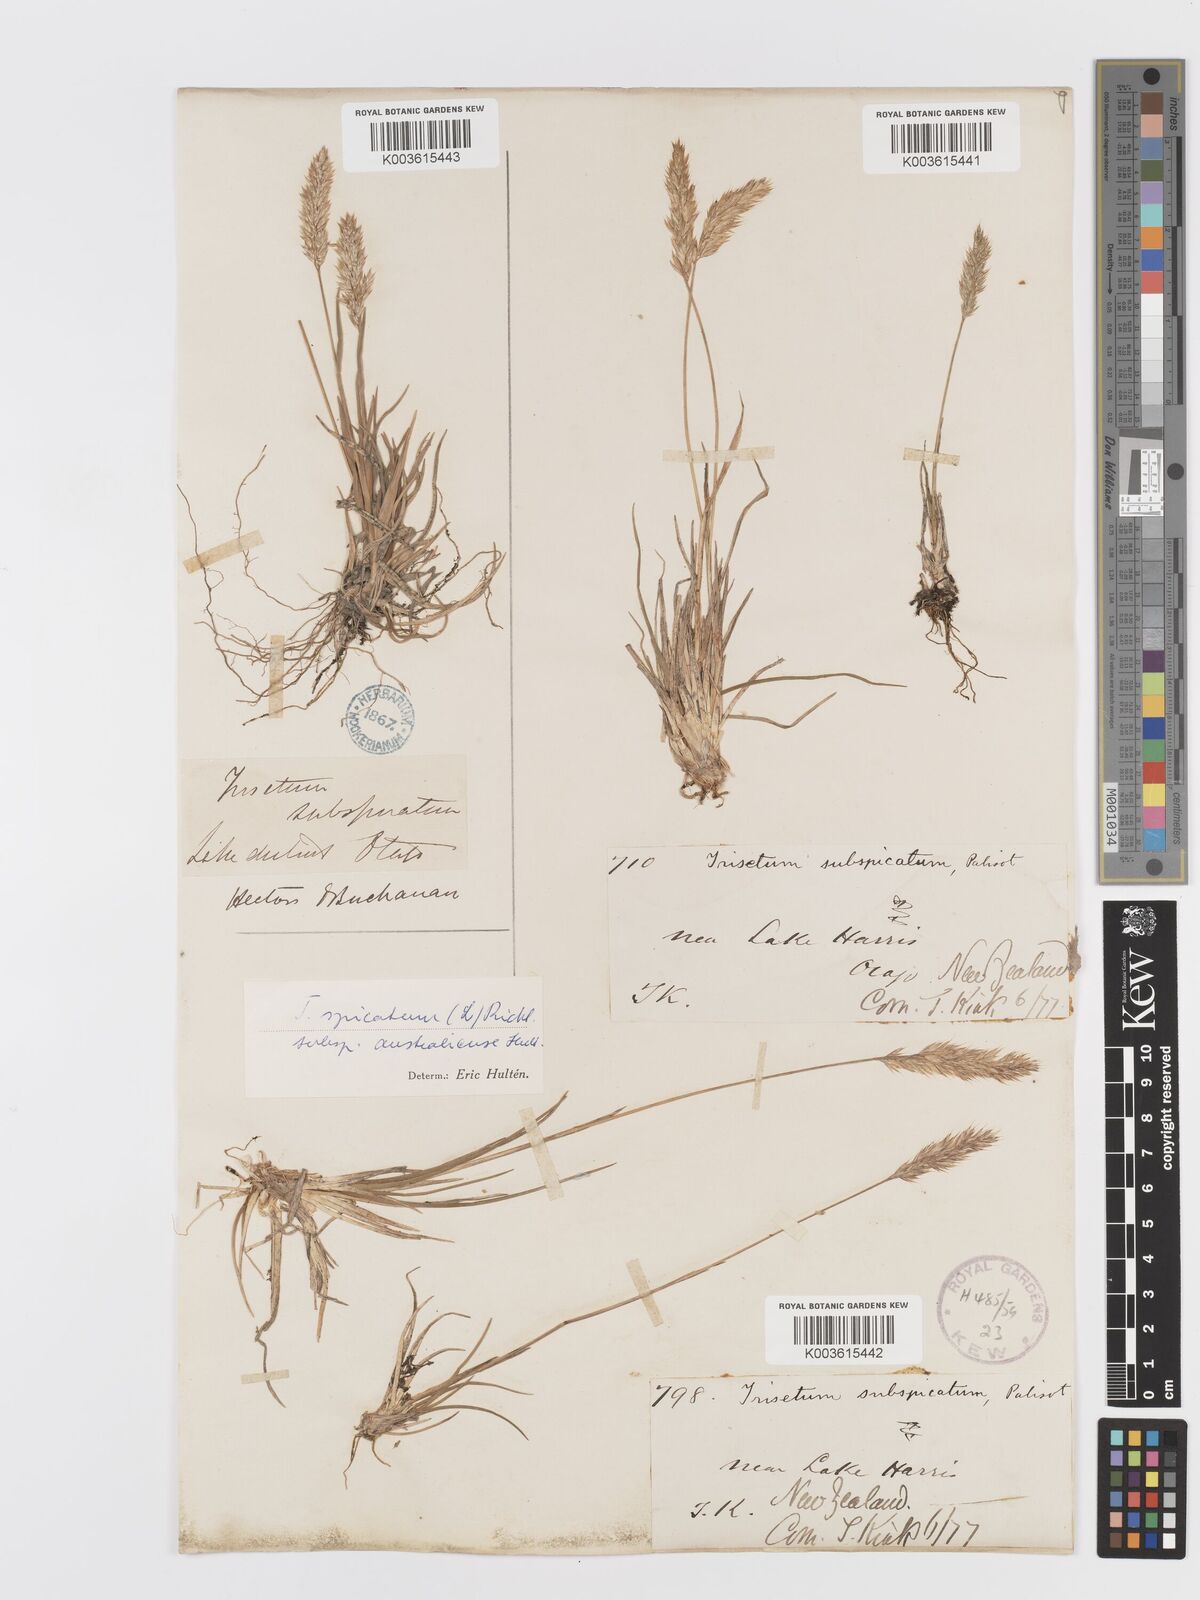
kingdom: Plantae
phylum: Tracheophyta
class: Liliopsida
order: Poales
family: Poaceae
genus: Koeleria
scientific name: Koeleria spicata
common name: Mountain trisetum
